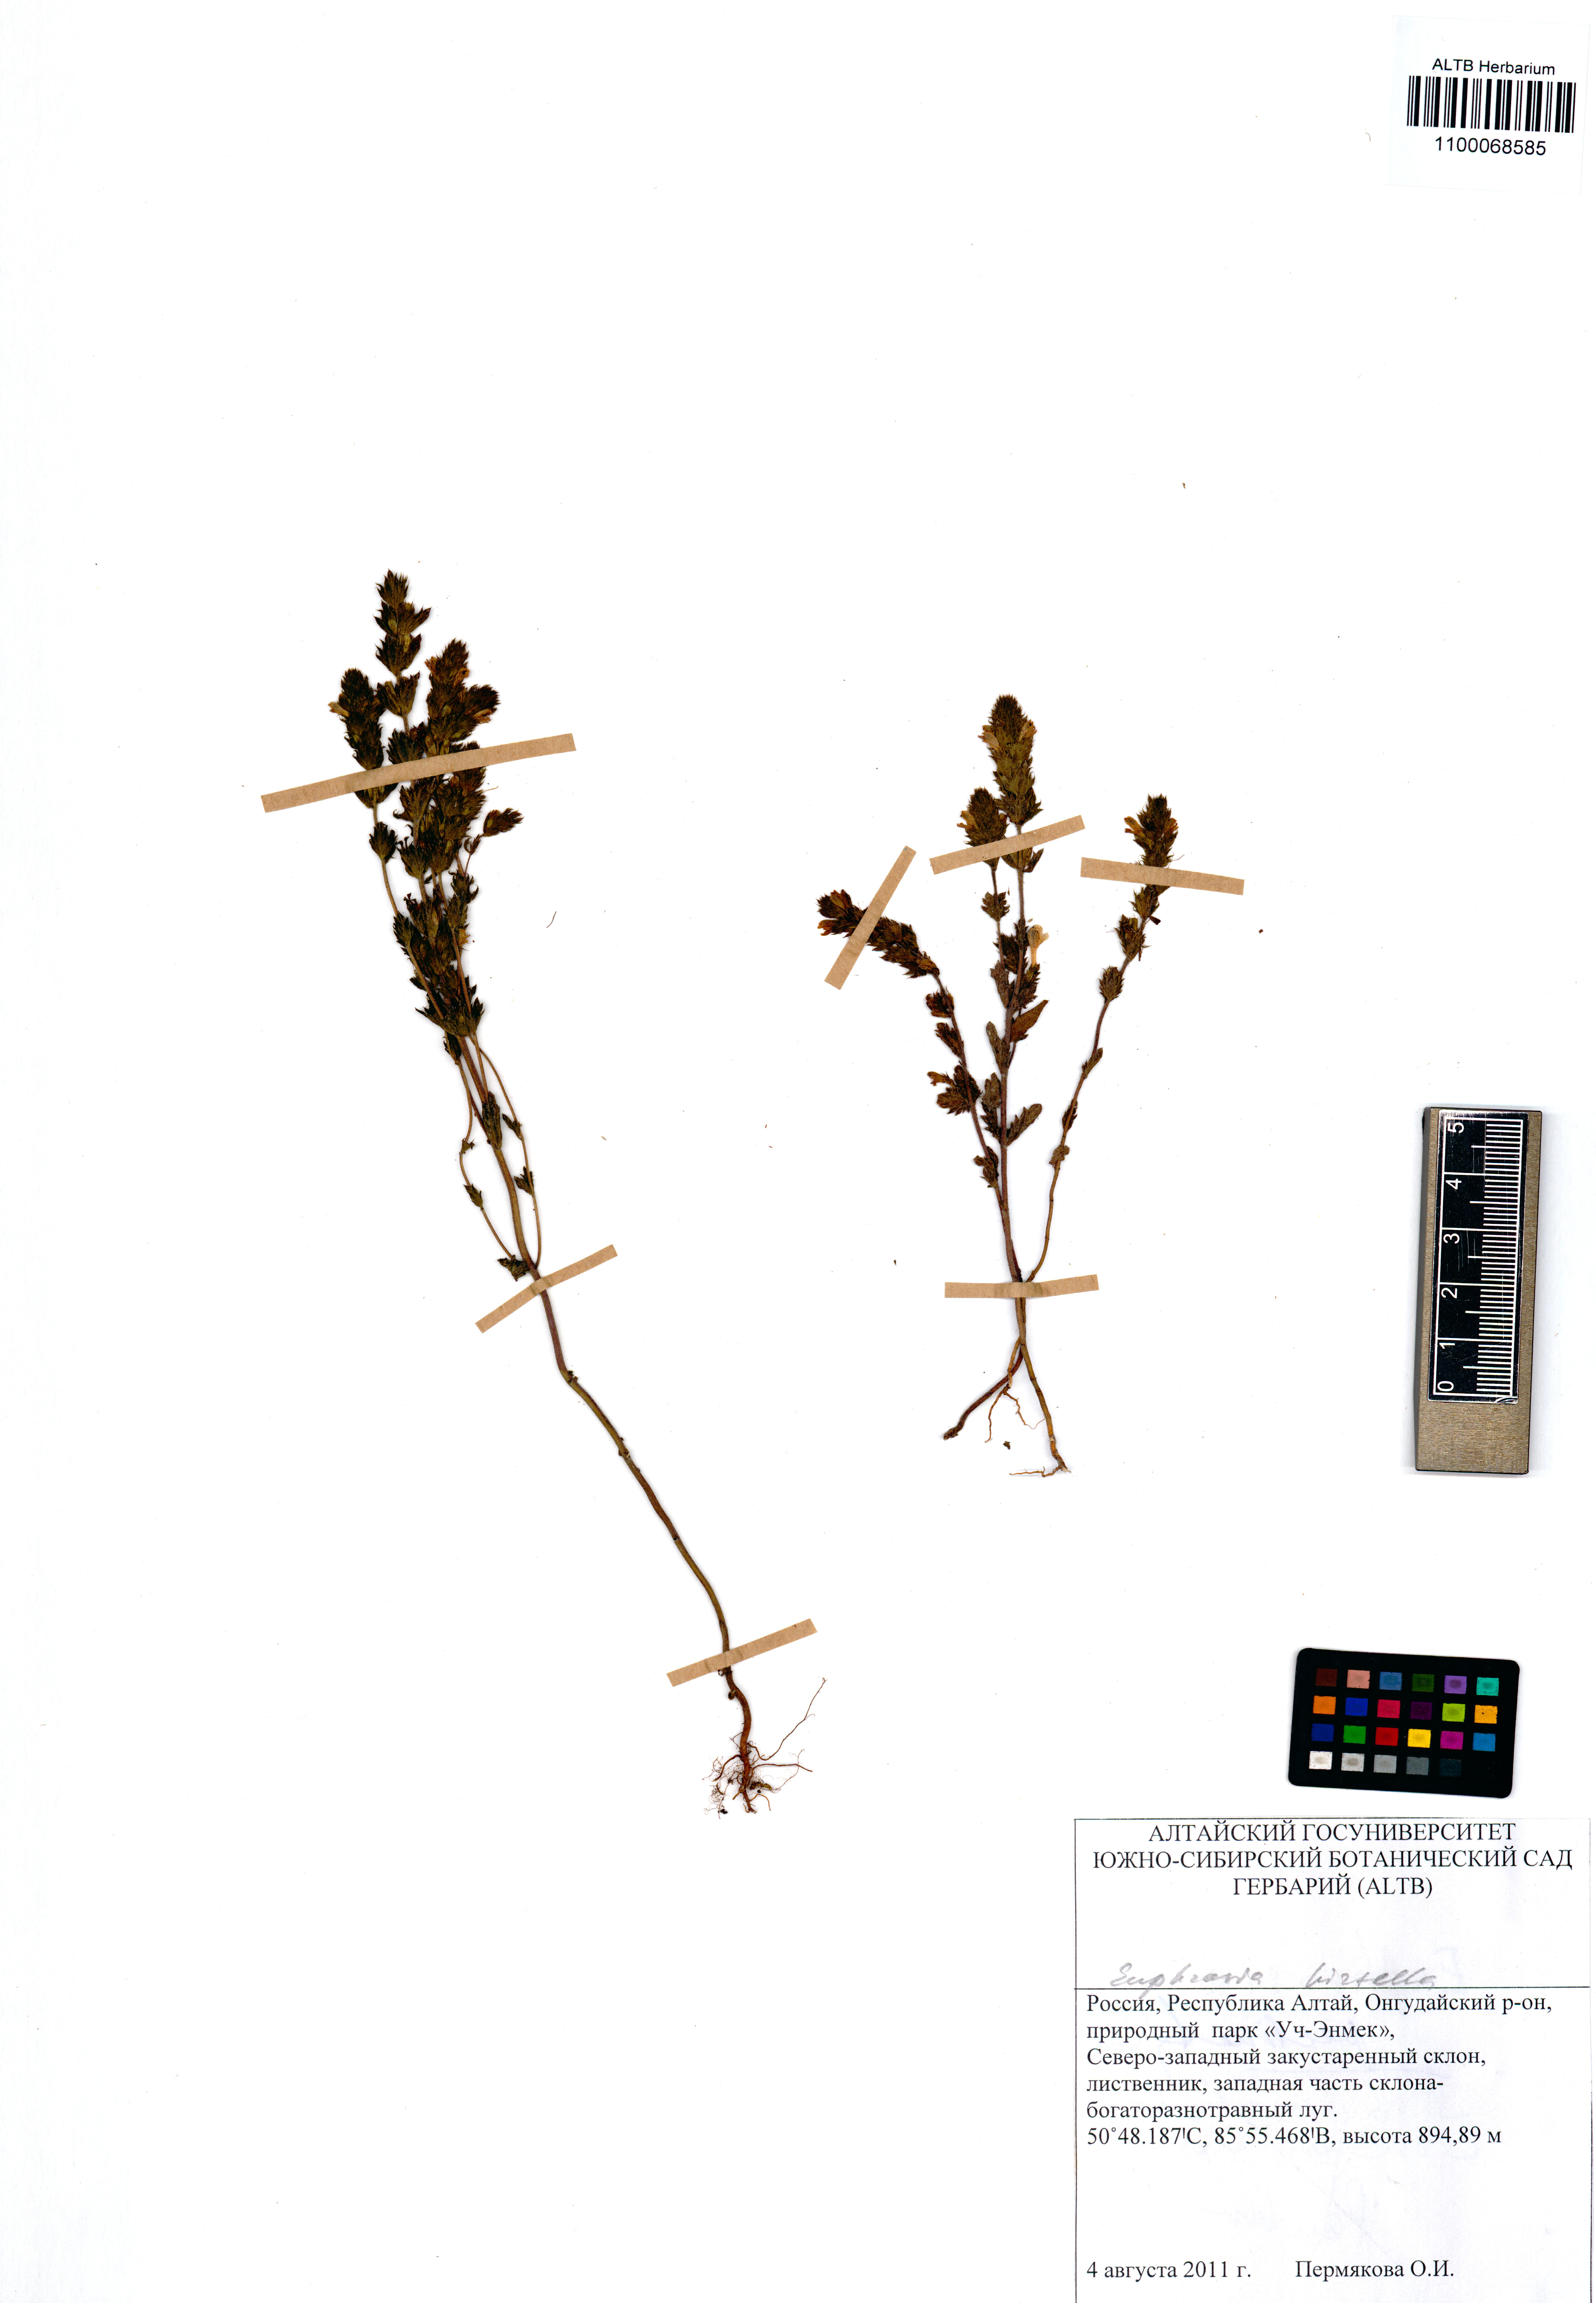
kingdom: Plantae
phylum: Tracheophyta
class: Magnoliopsida
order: Lamiales
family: Orobanchaceae
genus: Euphrasia
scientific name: Euphrasia hirtella
